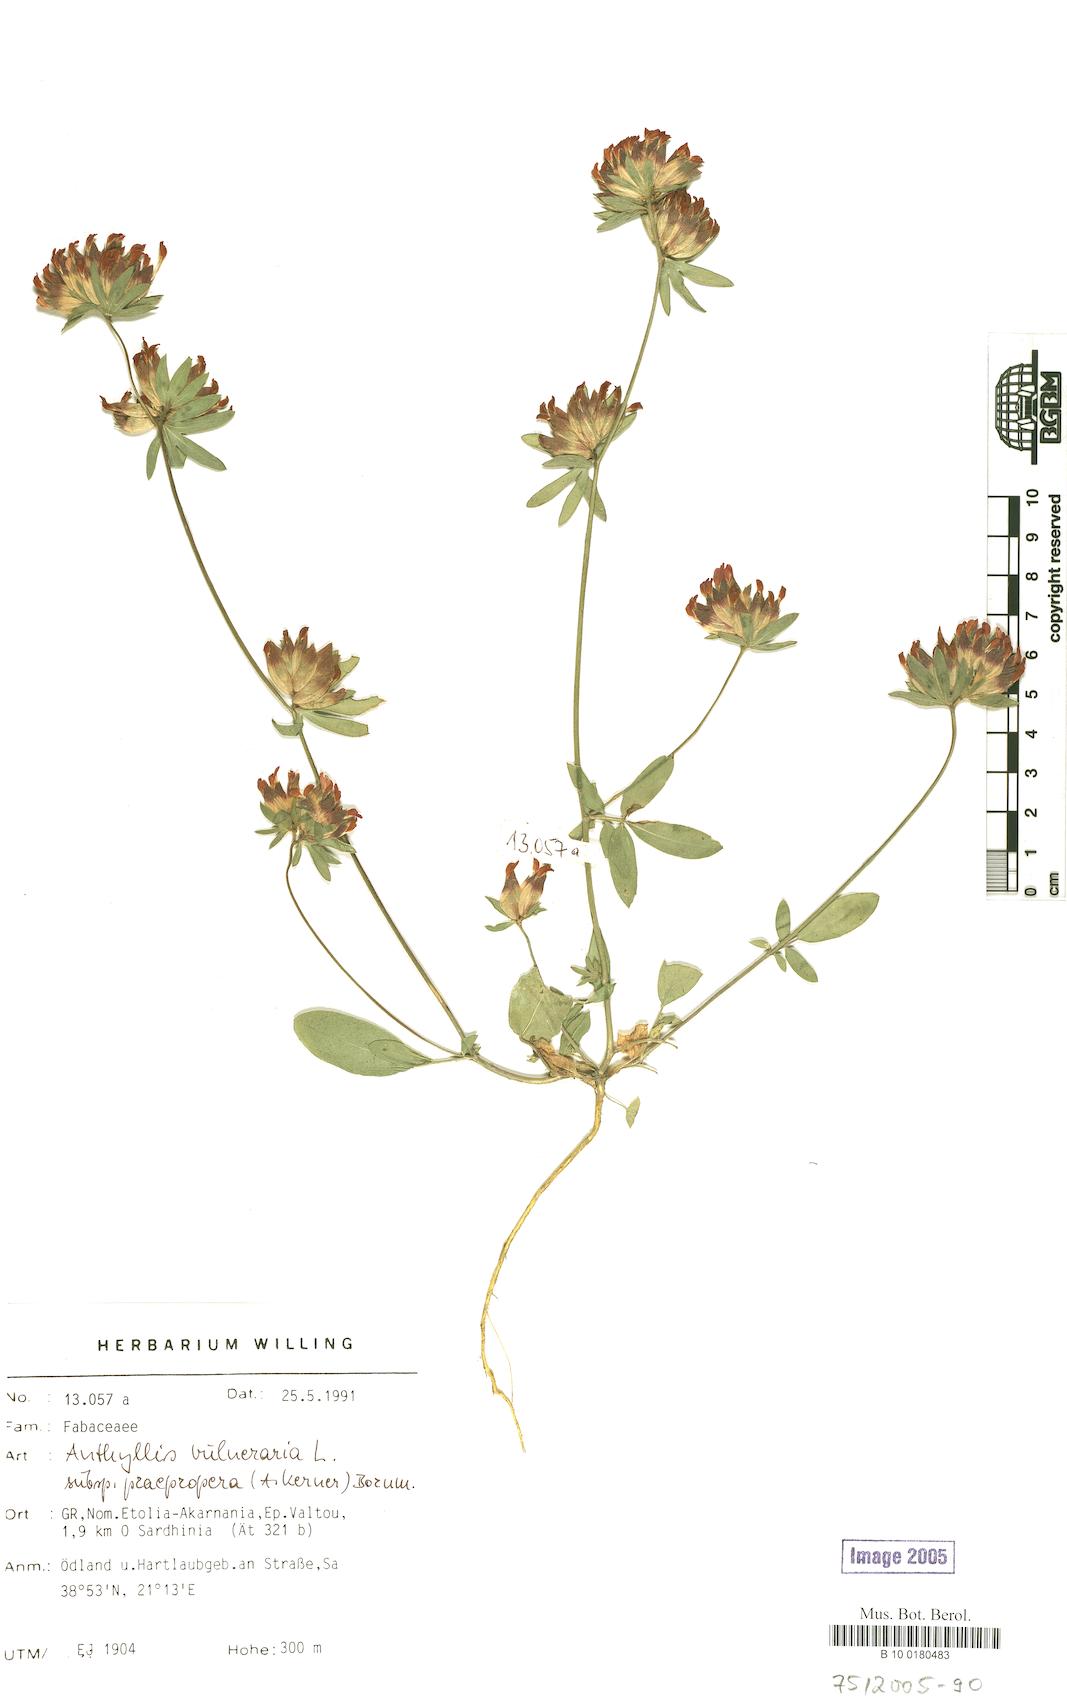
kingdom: Plantae
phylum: Tracheophyta
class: Magnoliopsida
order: Fabales
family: Fabaceae
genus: Anthyllis
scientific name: Anthyllis vulneraria
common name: Kidney vetch
